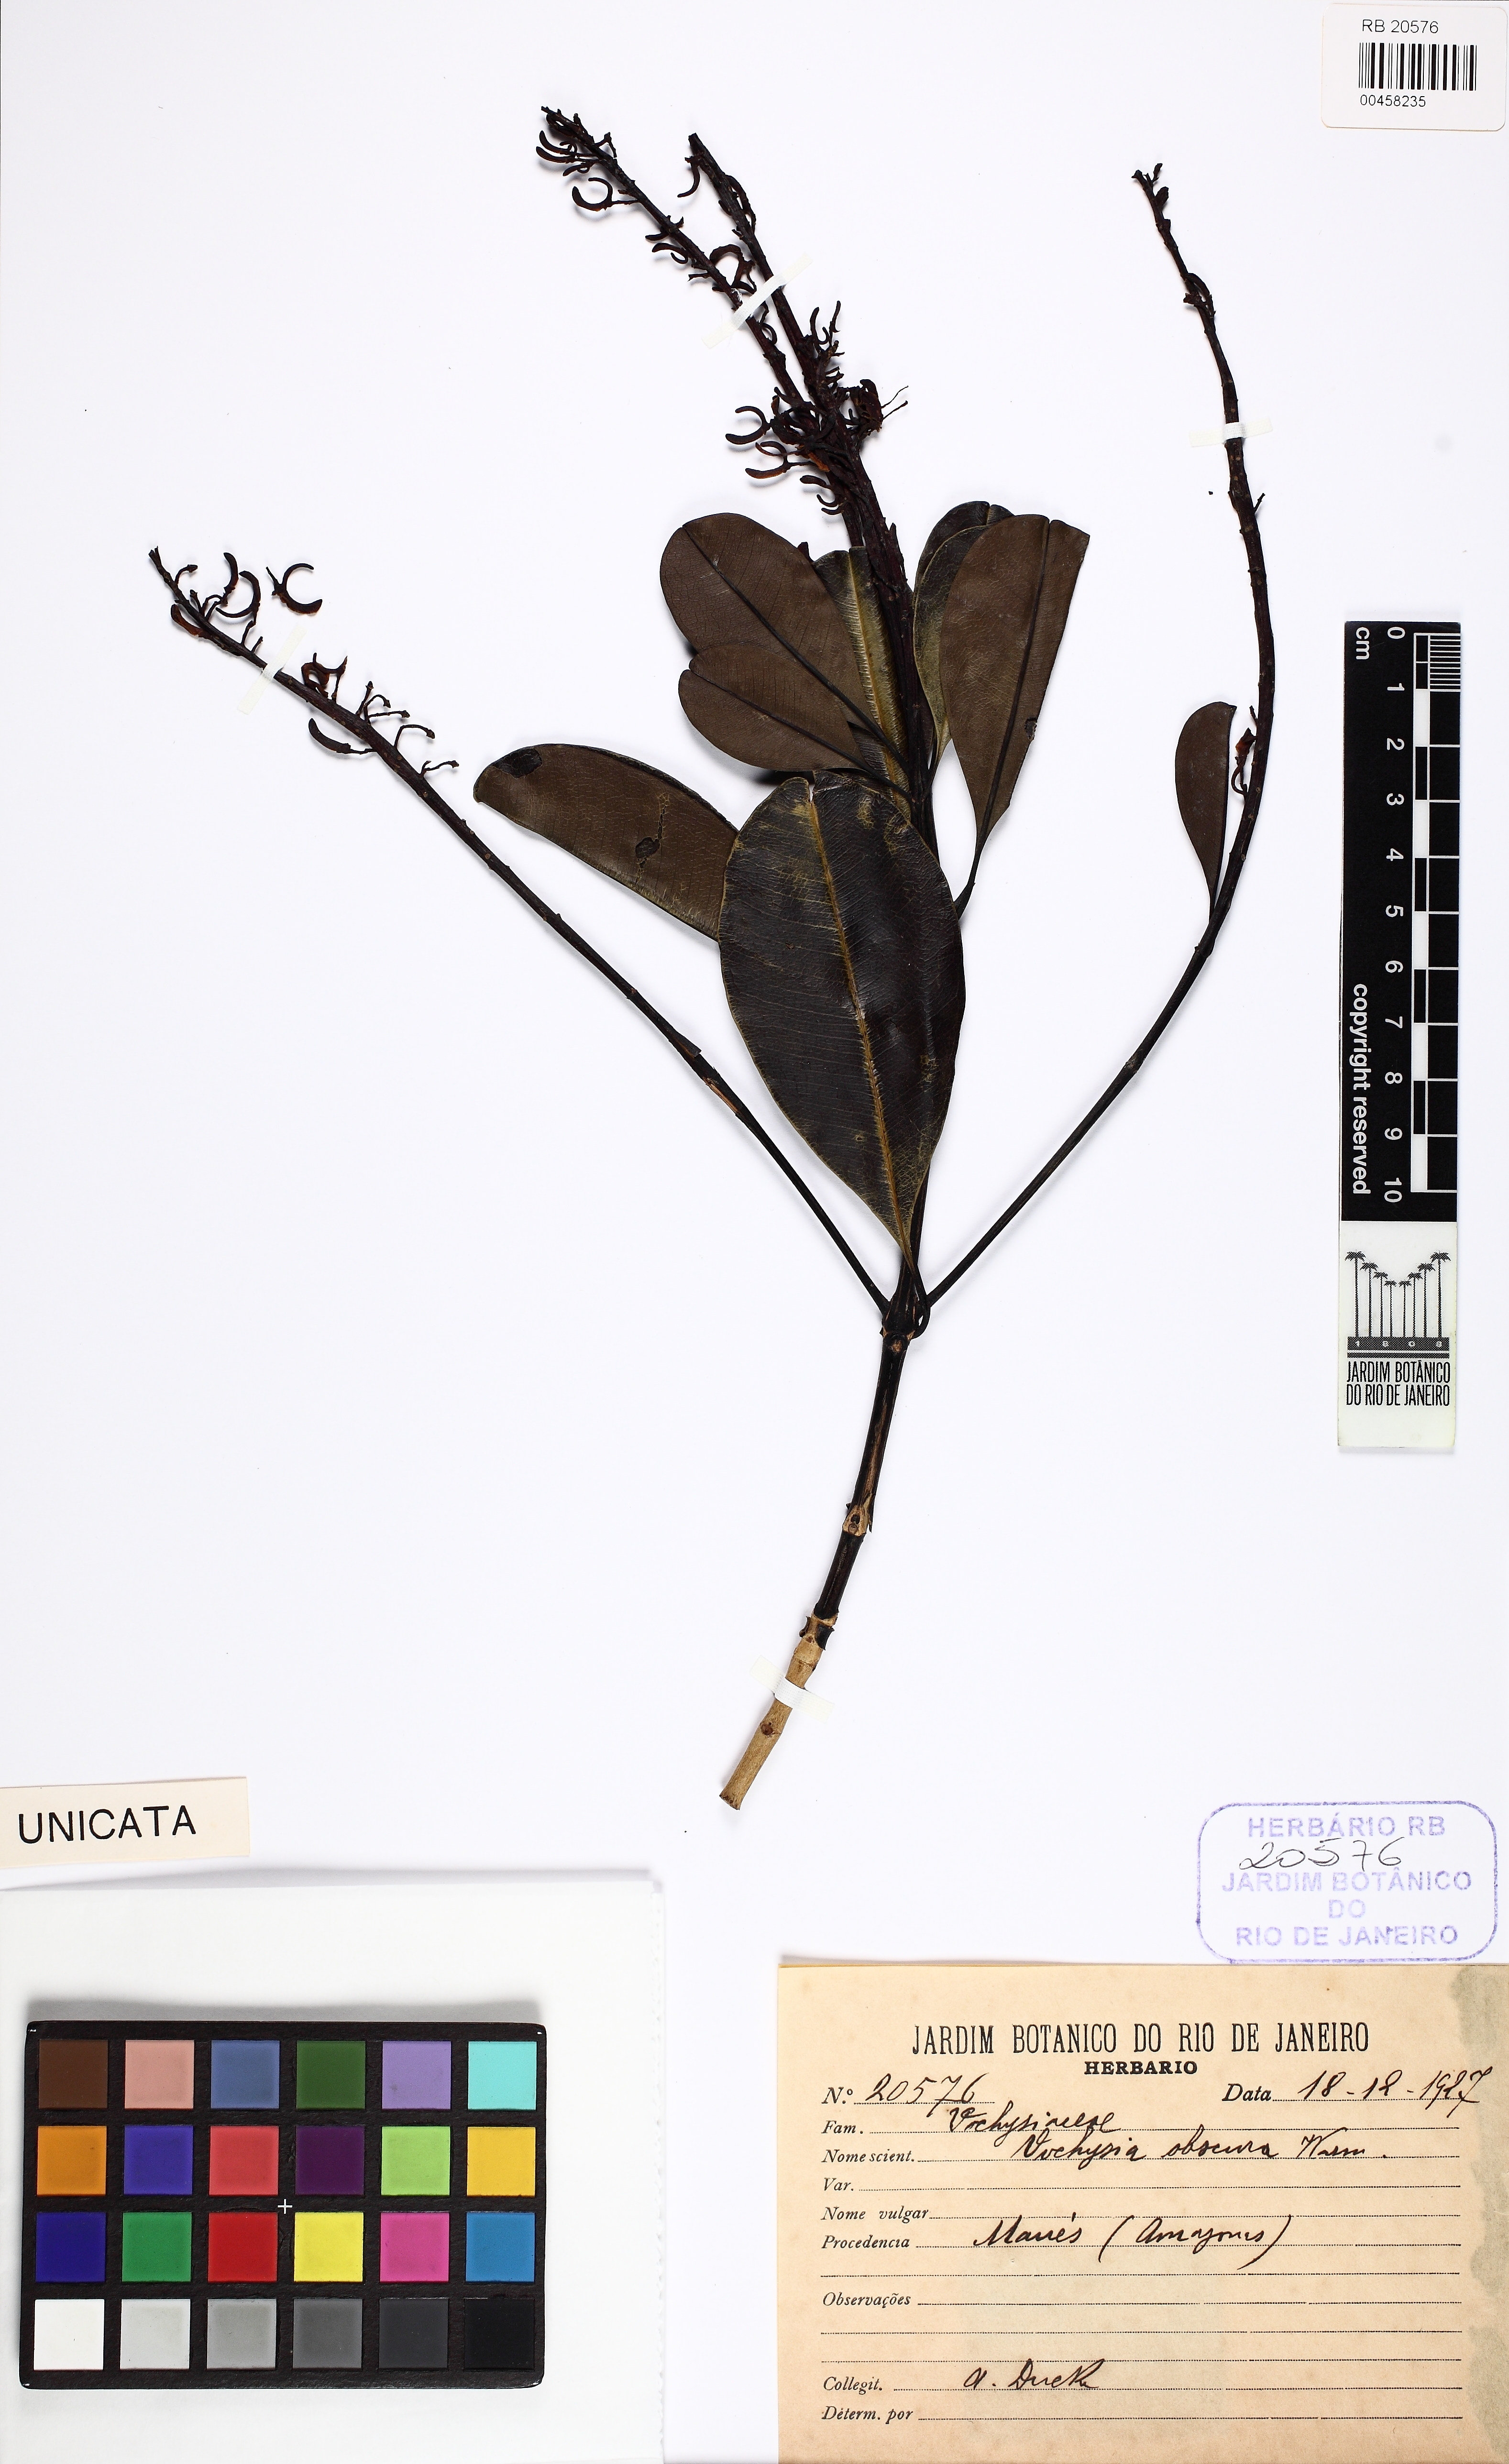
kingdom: Plantae
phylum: Tracheophyta
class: Magnoliopsida
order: Myrtales
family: Vochysiaceae
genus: Vochysia
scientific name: Vochysia obscura
